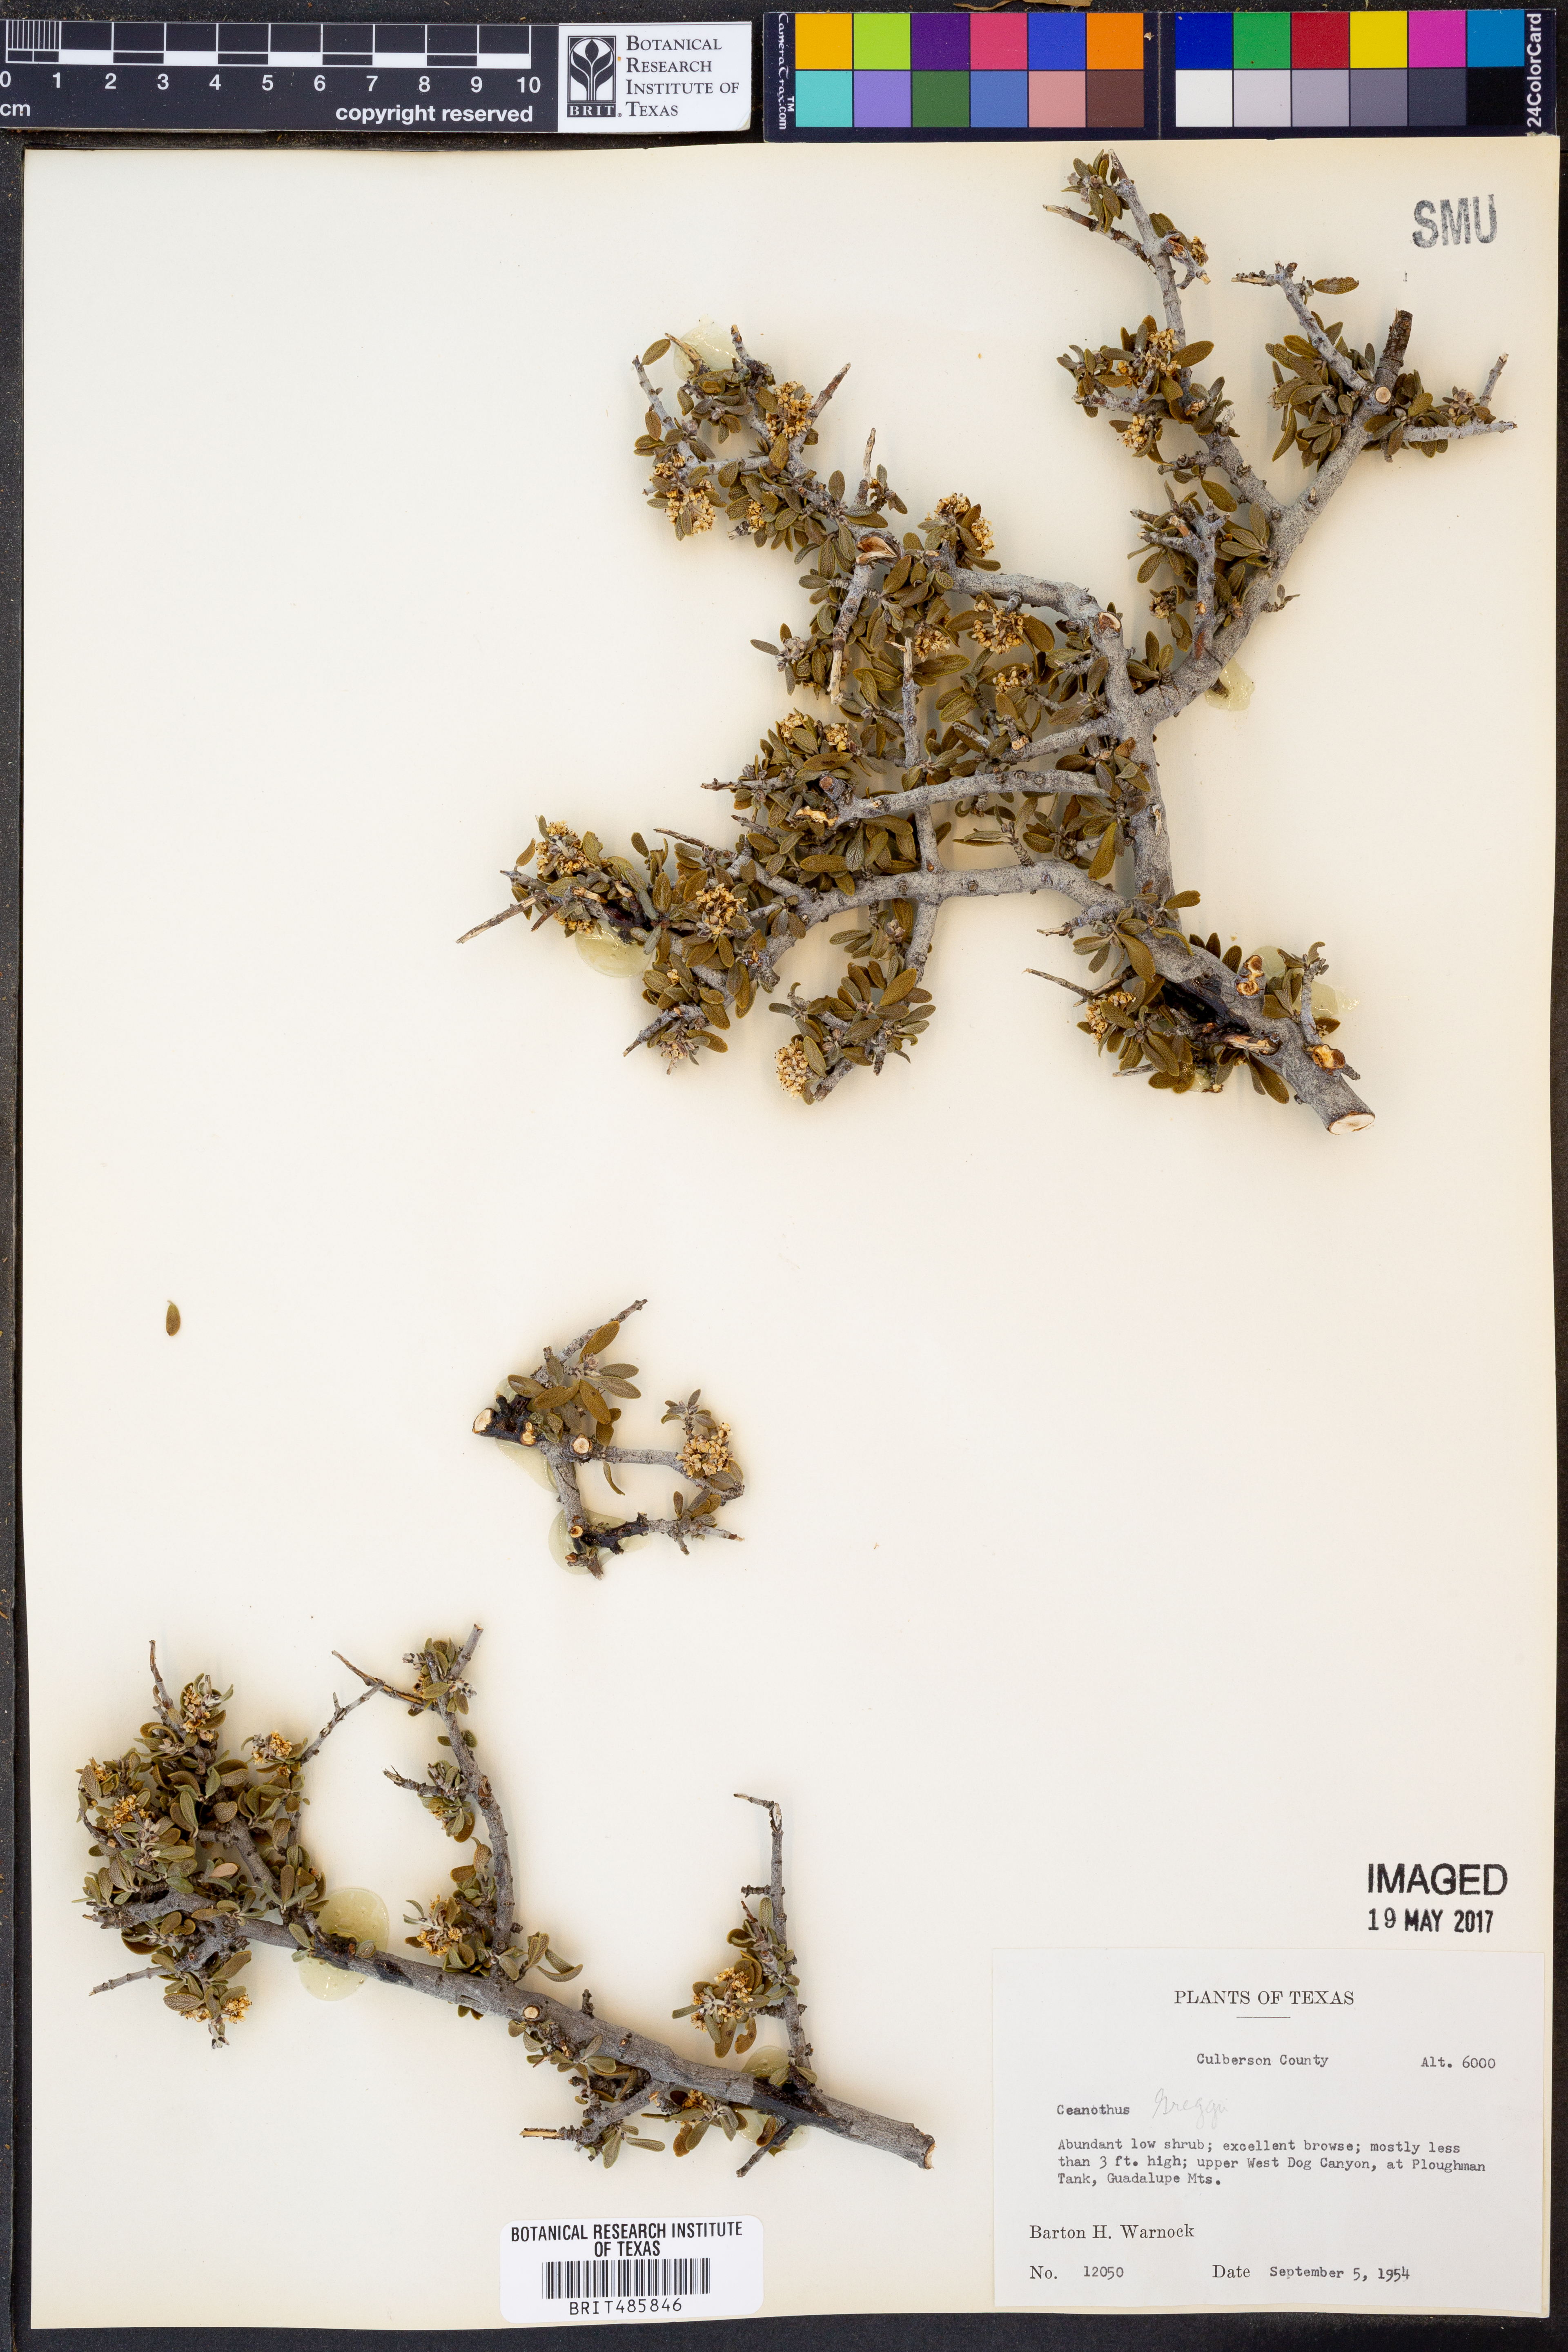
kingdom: Plantae
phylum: Tracheophyta
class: Magnoliopsida
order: Rosales
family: Rhamnaceae
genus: Ceanothus
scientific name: Ceanothus pauciflorus
